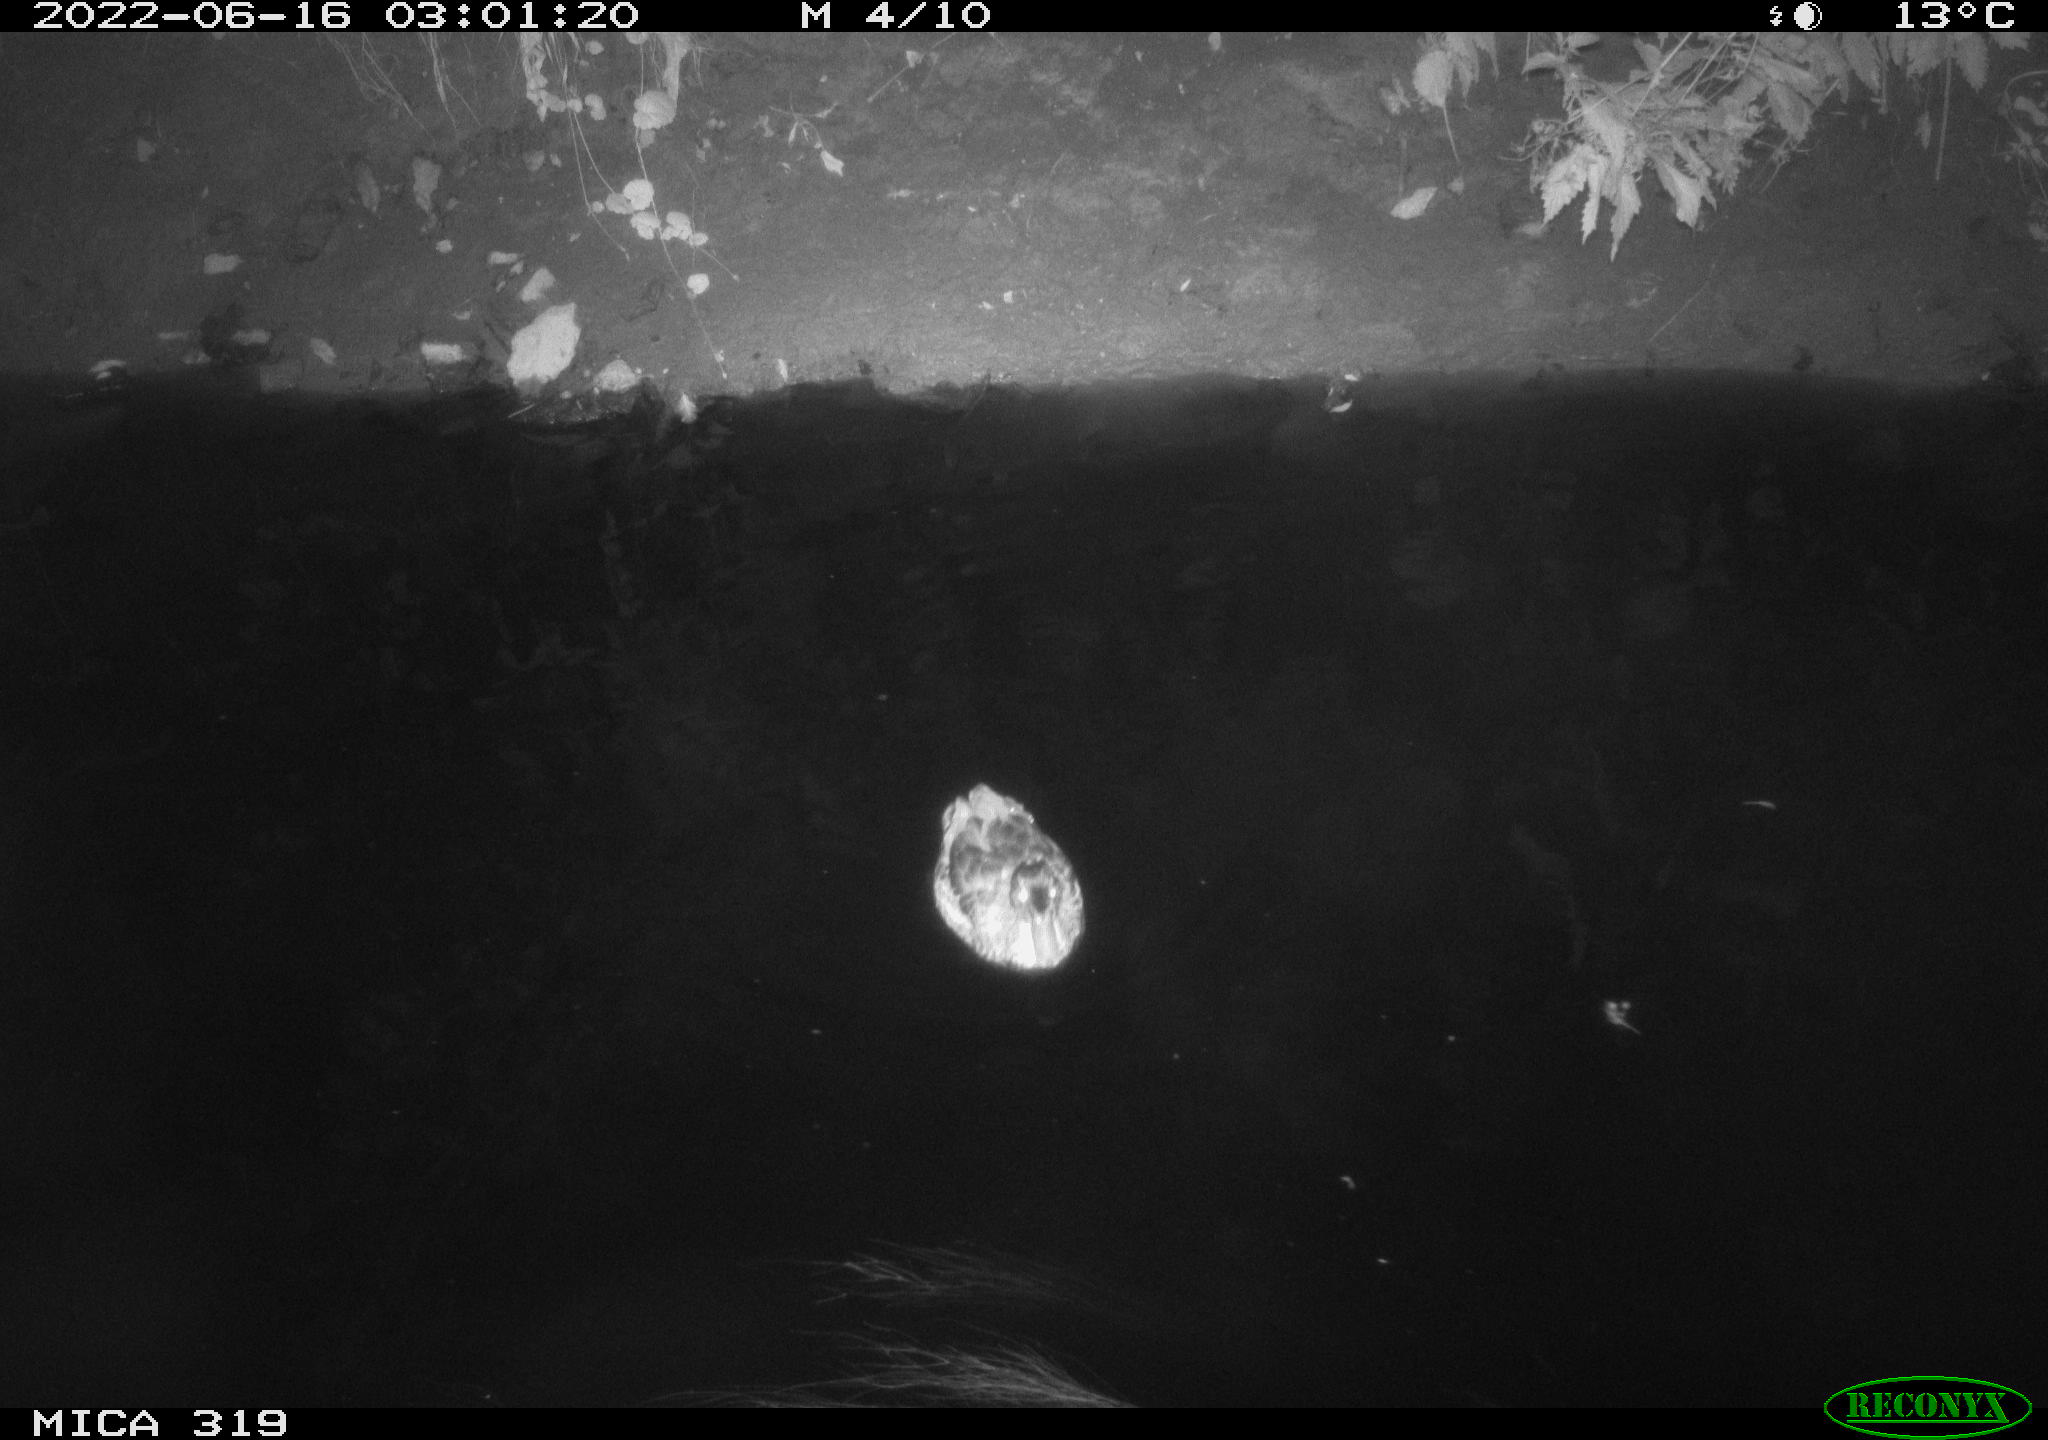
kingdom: Animalia
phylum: Chordata
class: Aves
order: Anseriformes
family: Anatidae
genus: Anas
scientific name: Anas
